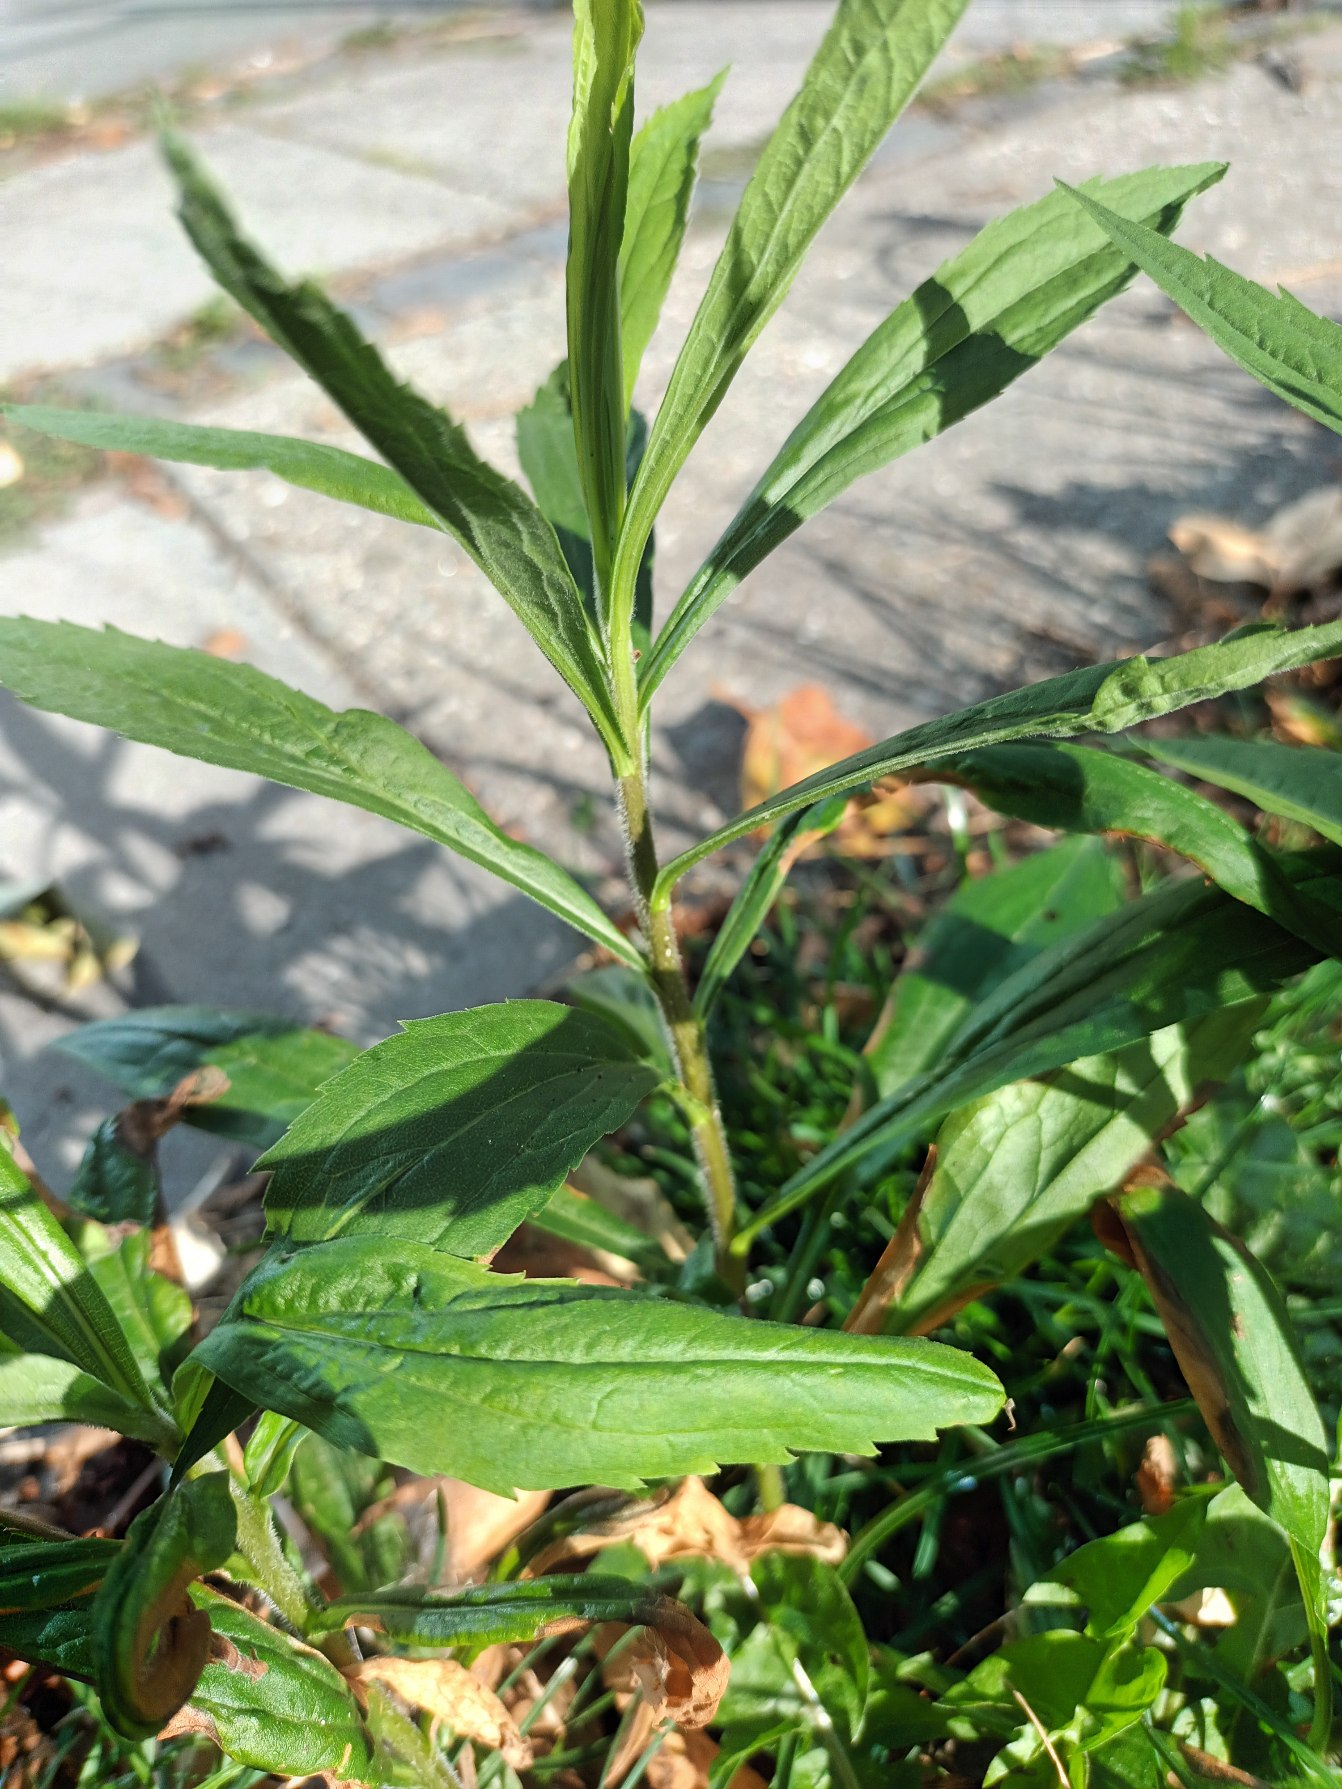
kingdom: Plantae
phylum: Tracheophyta
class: Magnoliopsida
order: Asterales
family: Asteraceae
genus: Solidago
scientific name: Solidago canadensis
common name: Kanadisk gyldenris
